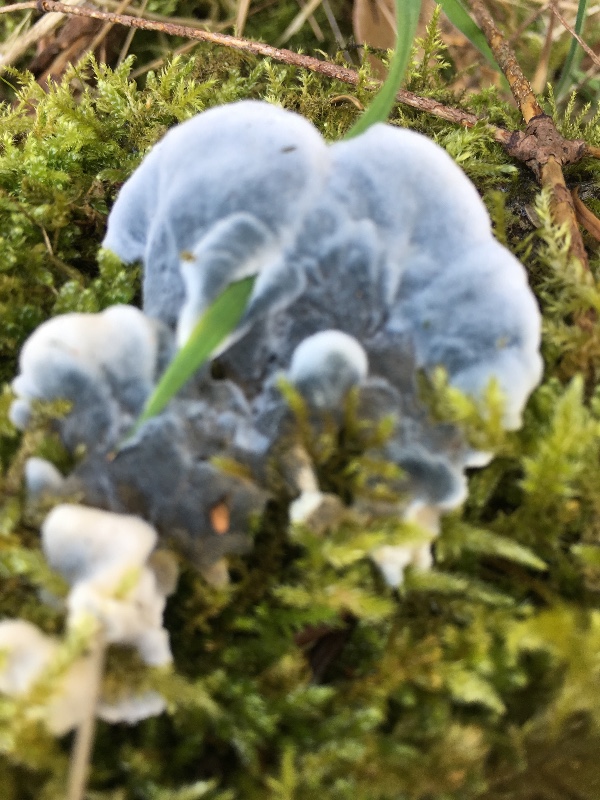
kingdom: Fungi
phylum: Basidiomycota
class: Agaricomycetes
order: Polyporales
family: Polyporaceae
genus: Cyanosporus
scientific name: Cyanosporus caesius
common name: blålig kødporesvamp
